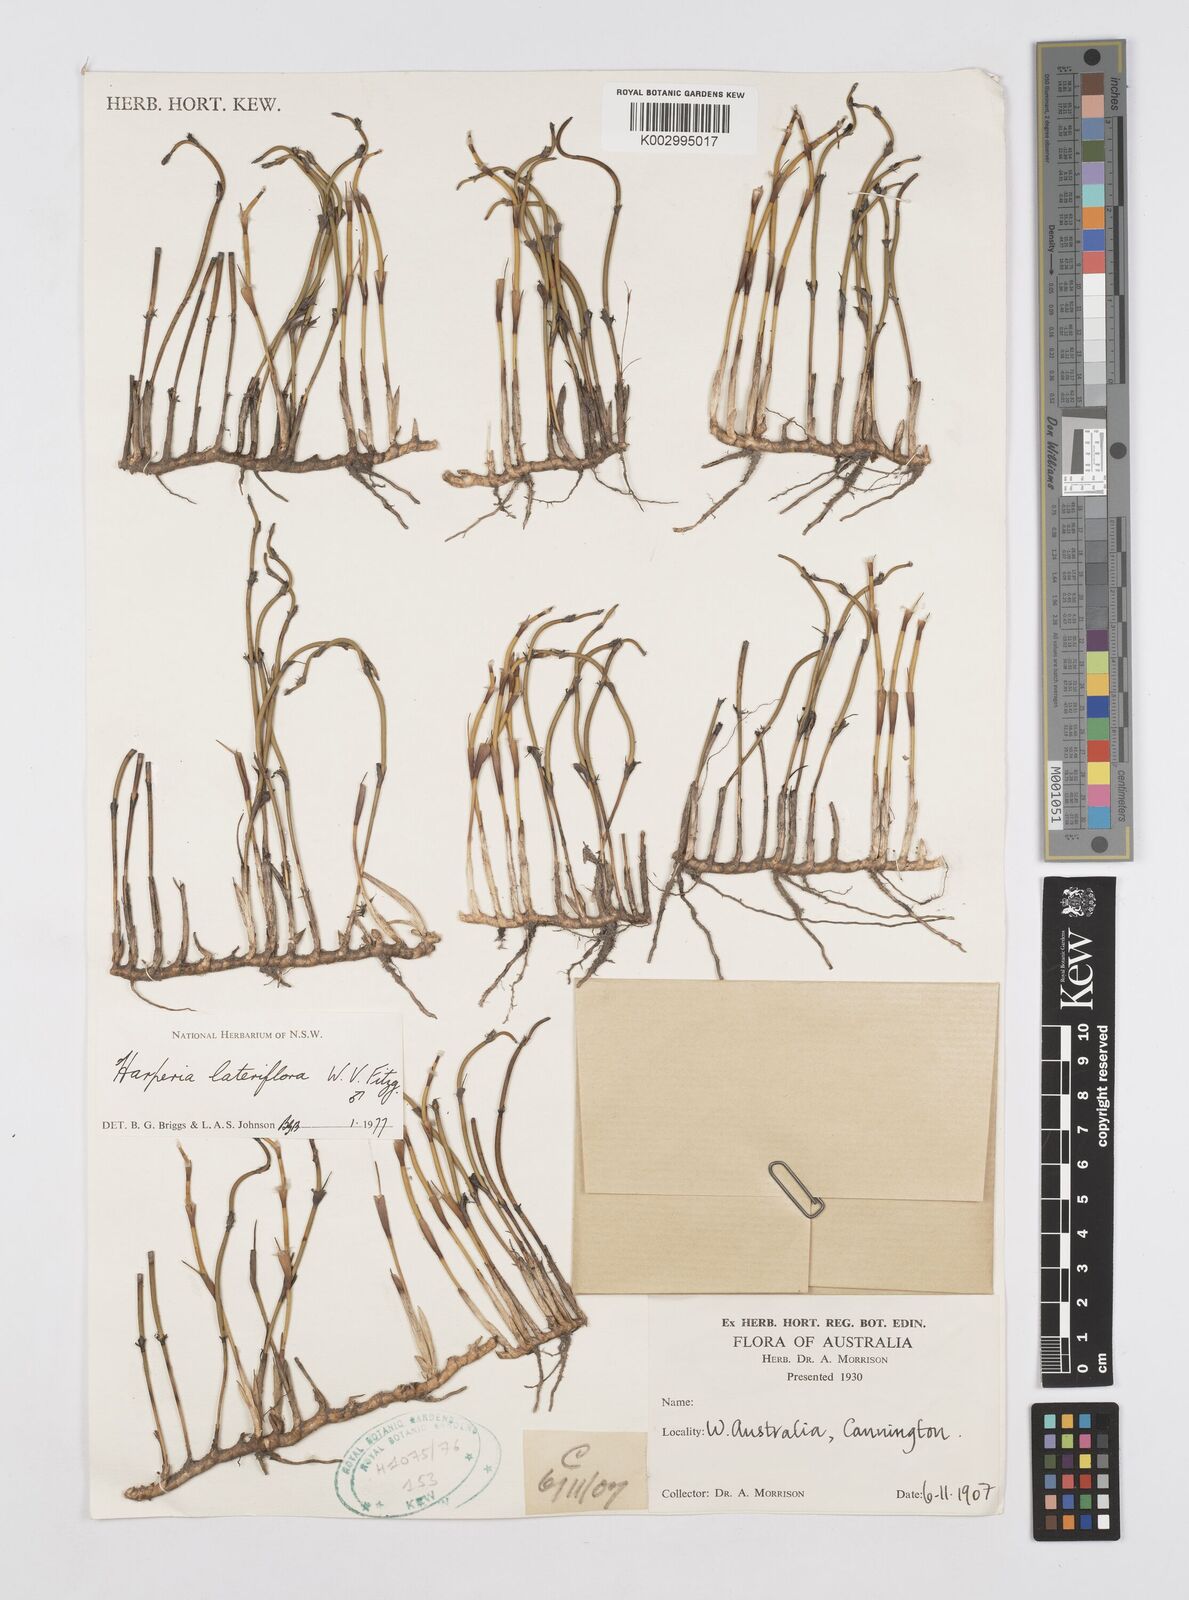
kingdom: Plantae
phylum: Tracheophyta
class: Liliopsida
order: Poales
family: Restionaceae
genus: Desmocladus
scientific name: Desmocladus lateriflorus
